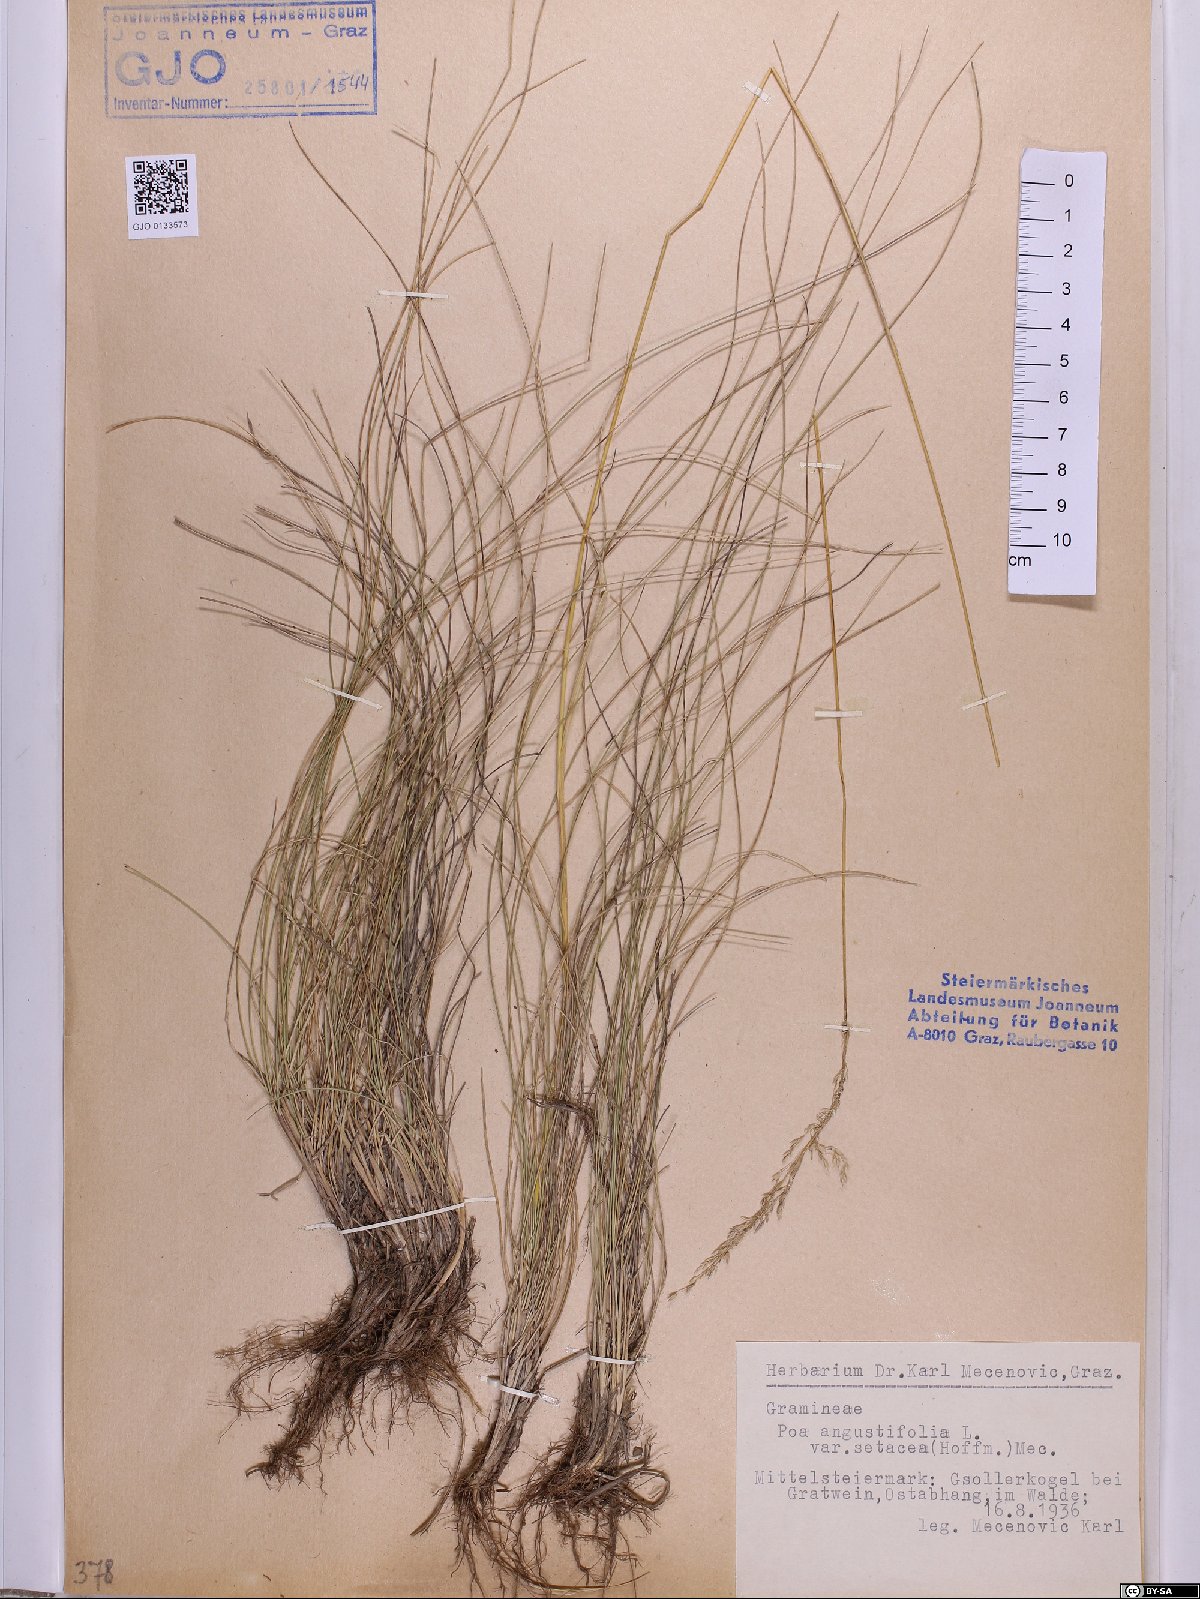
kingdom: Plantae
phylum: Tracheophyta
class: Liliopsida
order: Poales
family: Poaceae
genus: Poa
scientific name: Poa angustifolia
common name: Narrow-leaved meadow-grass
